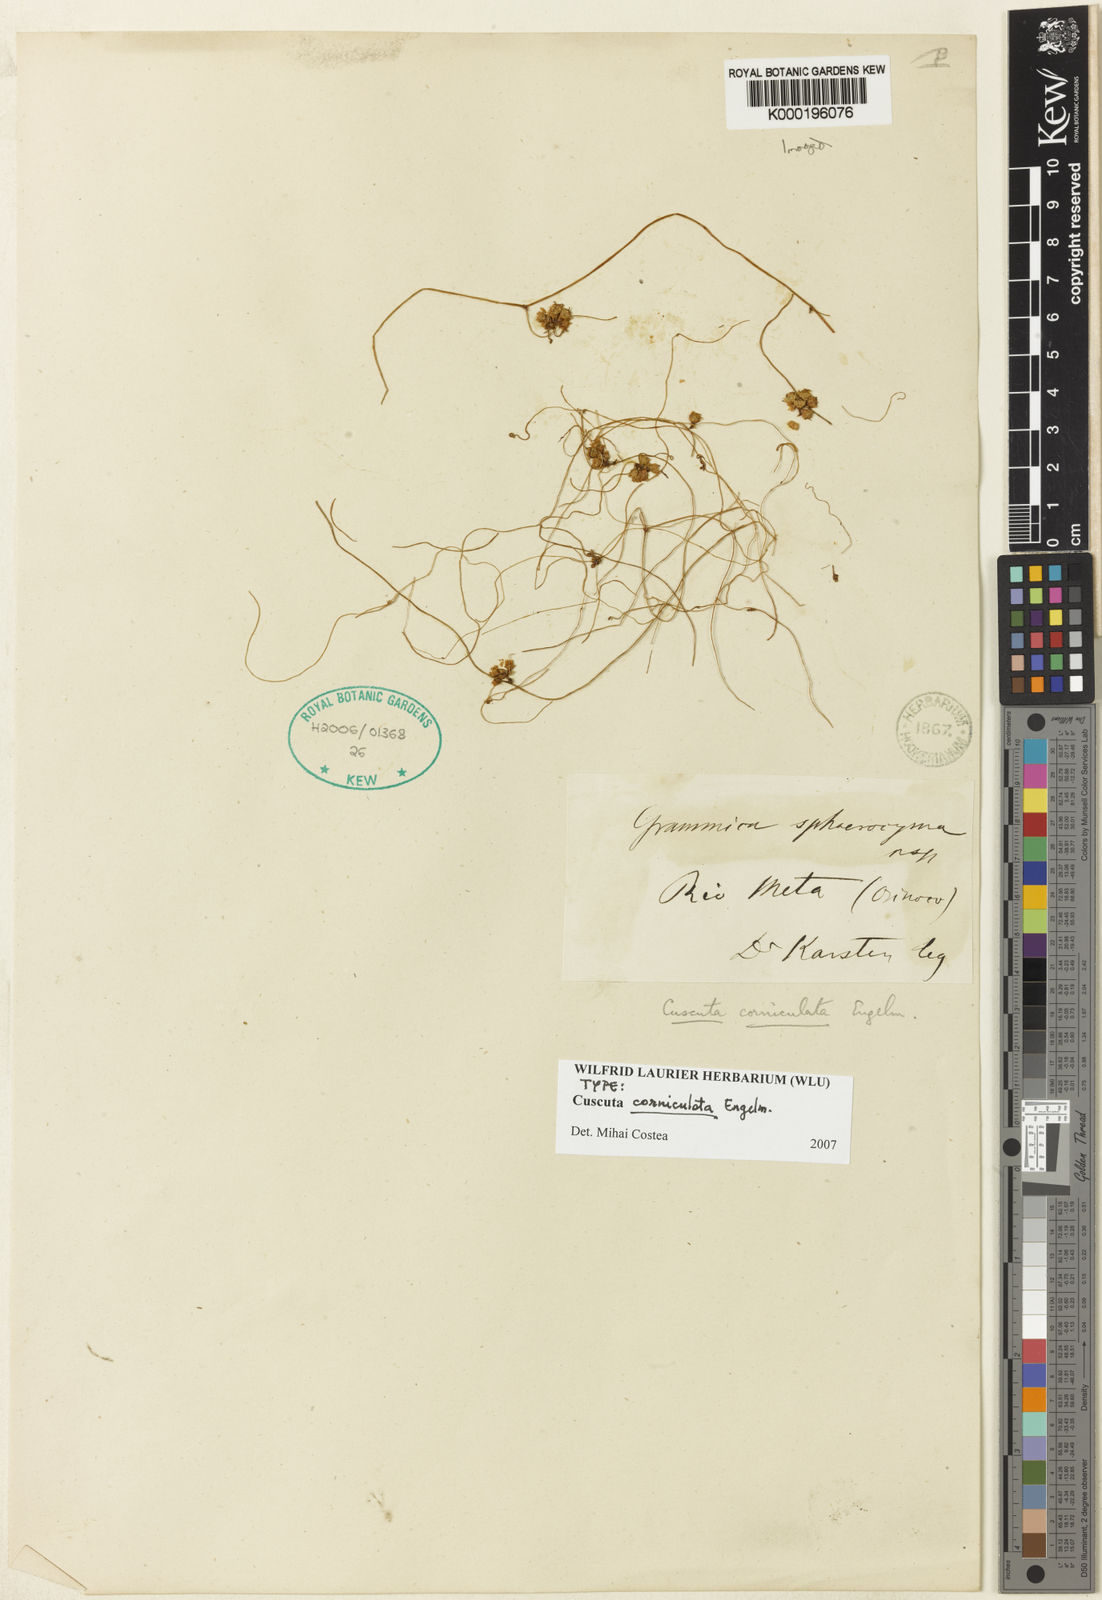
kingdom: Plantae
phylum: Tracheophyta
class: Magnoliopsida
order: Solanales
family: Convolvulaceae
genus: Cuscuta
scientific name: Cuscuta corniculata
